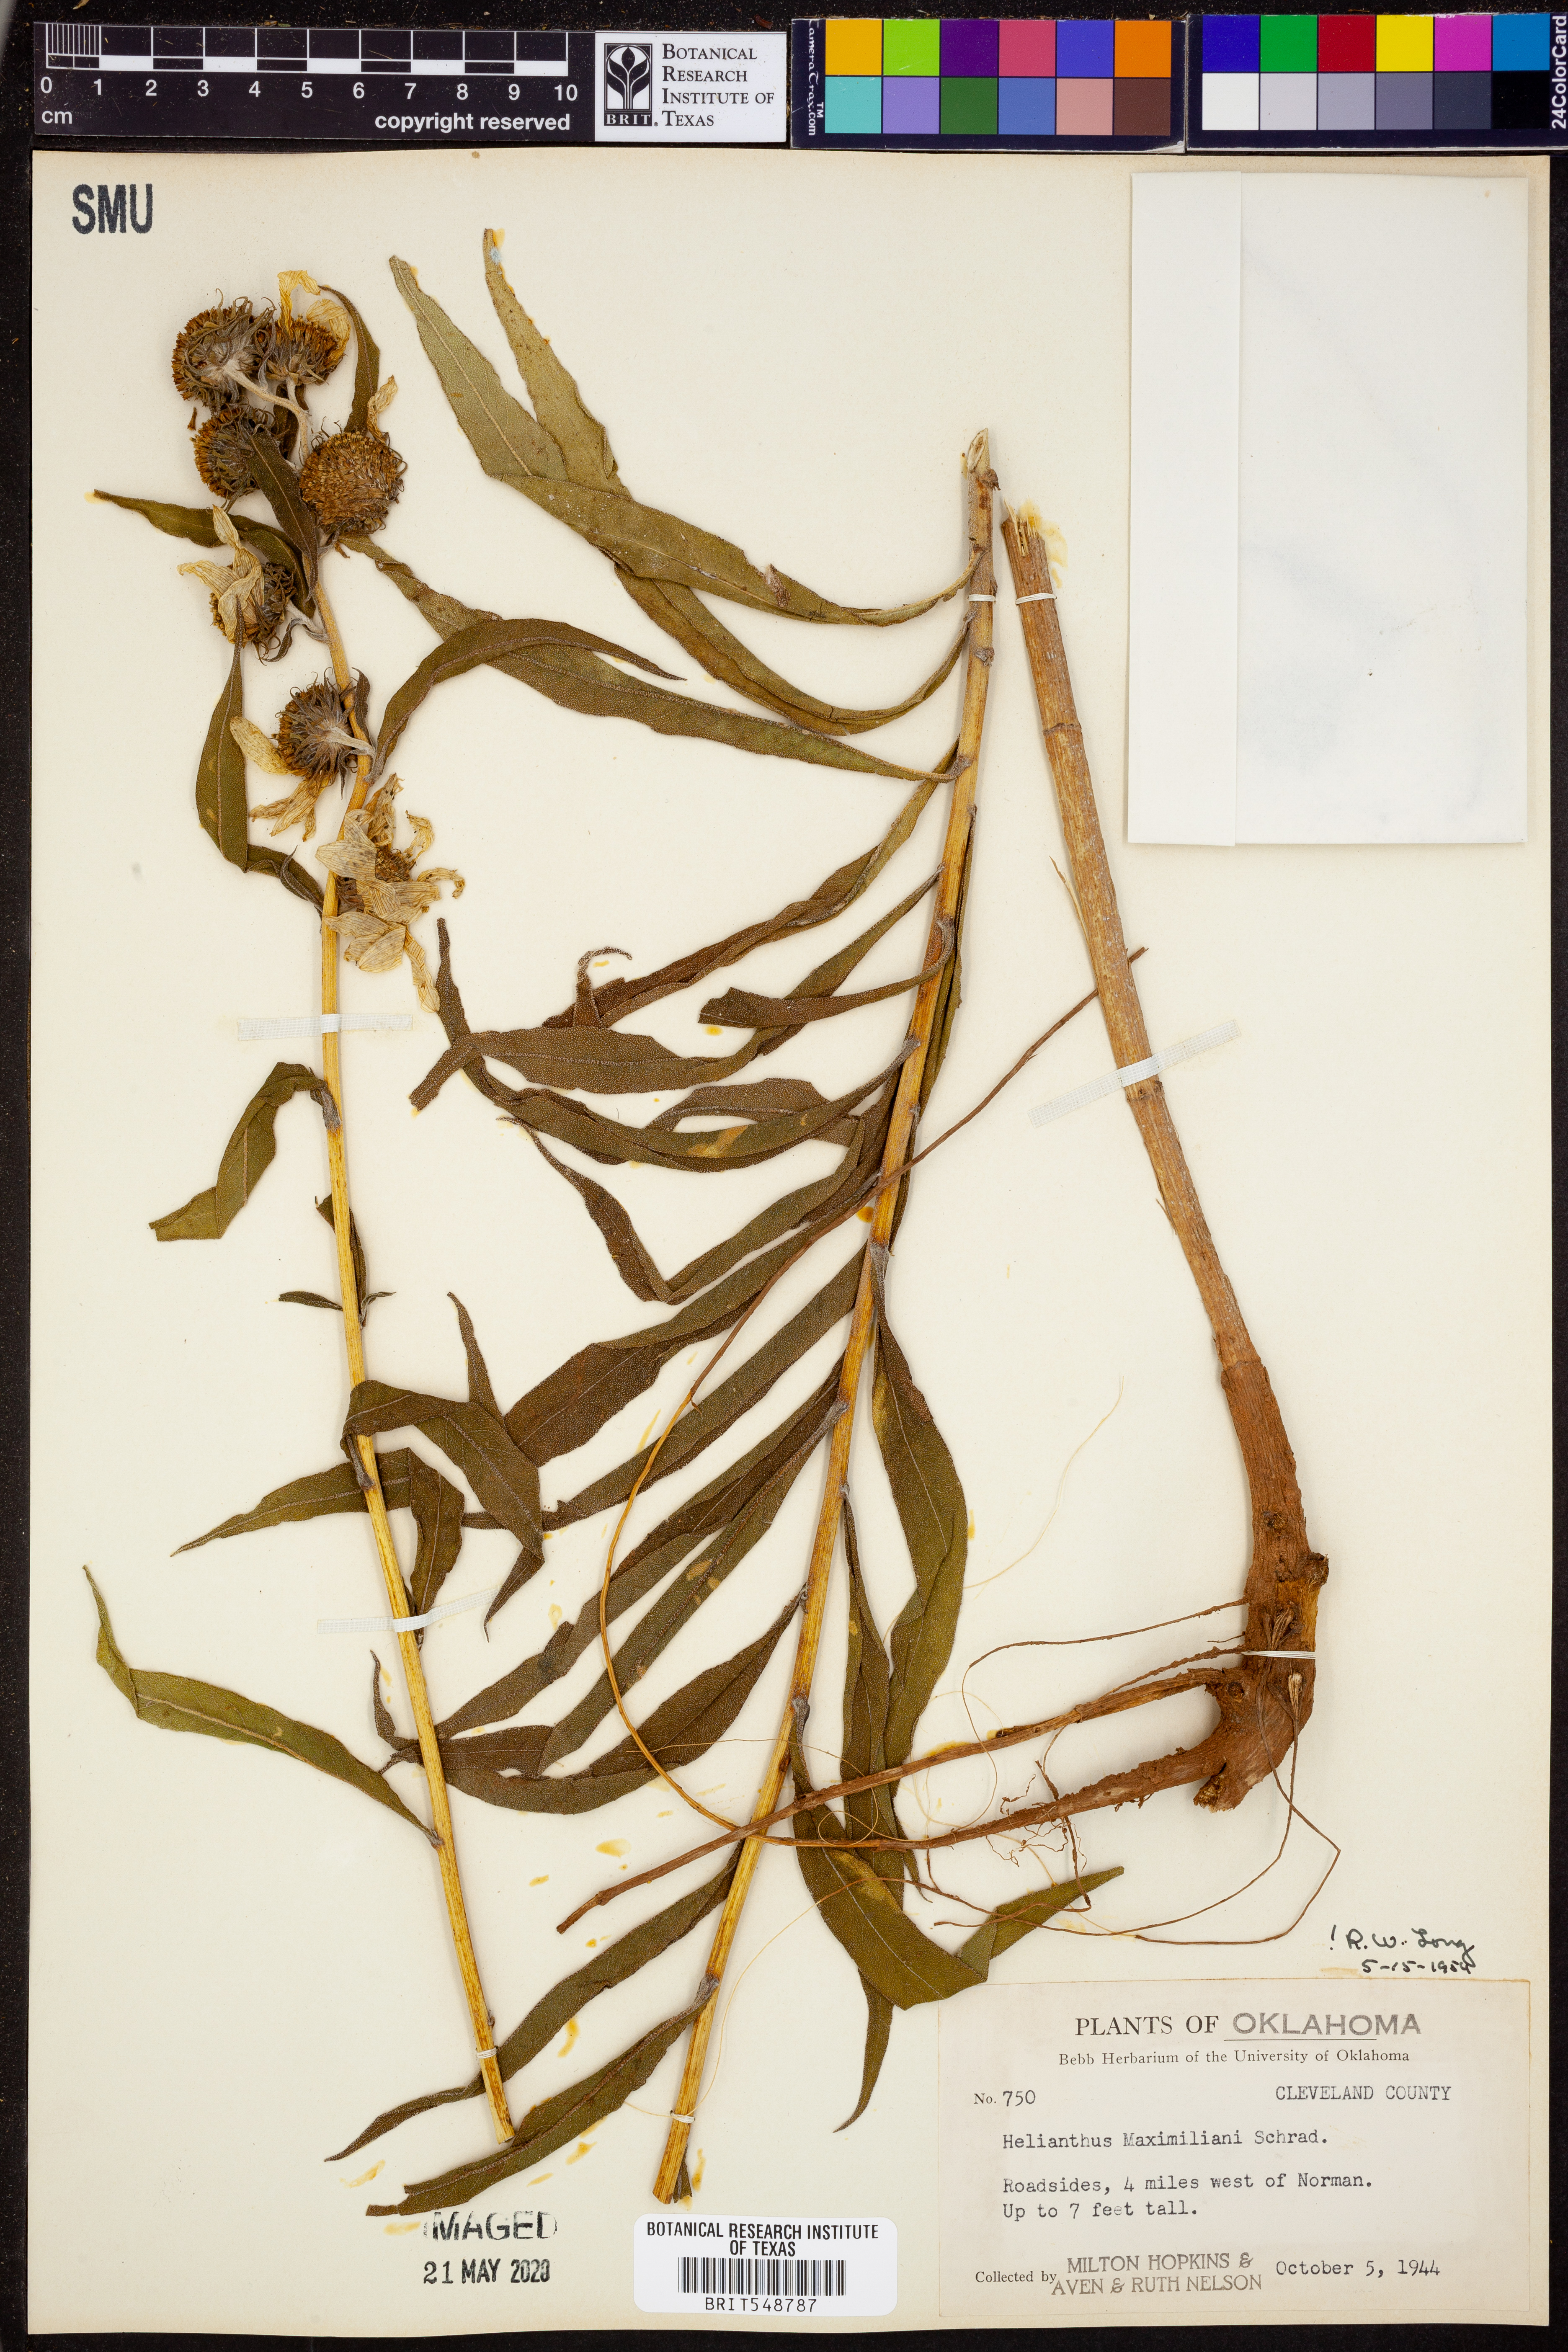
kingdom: Plantae
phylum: Tracheophyta
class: Magnoliopsida
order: Asterales
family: Asteraceae
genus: Helianthus
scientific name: Helianthus maximiliani
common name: Maximilian's sunflower
